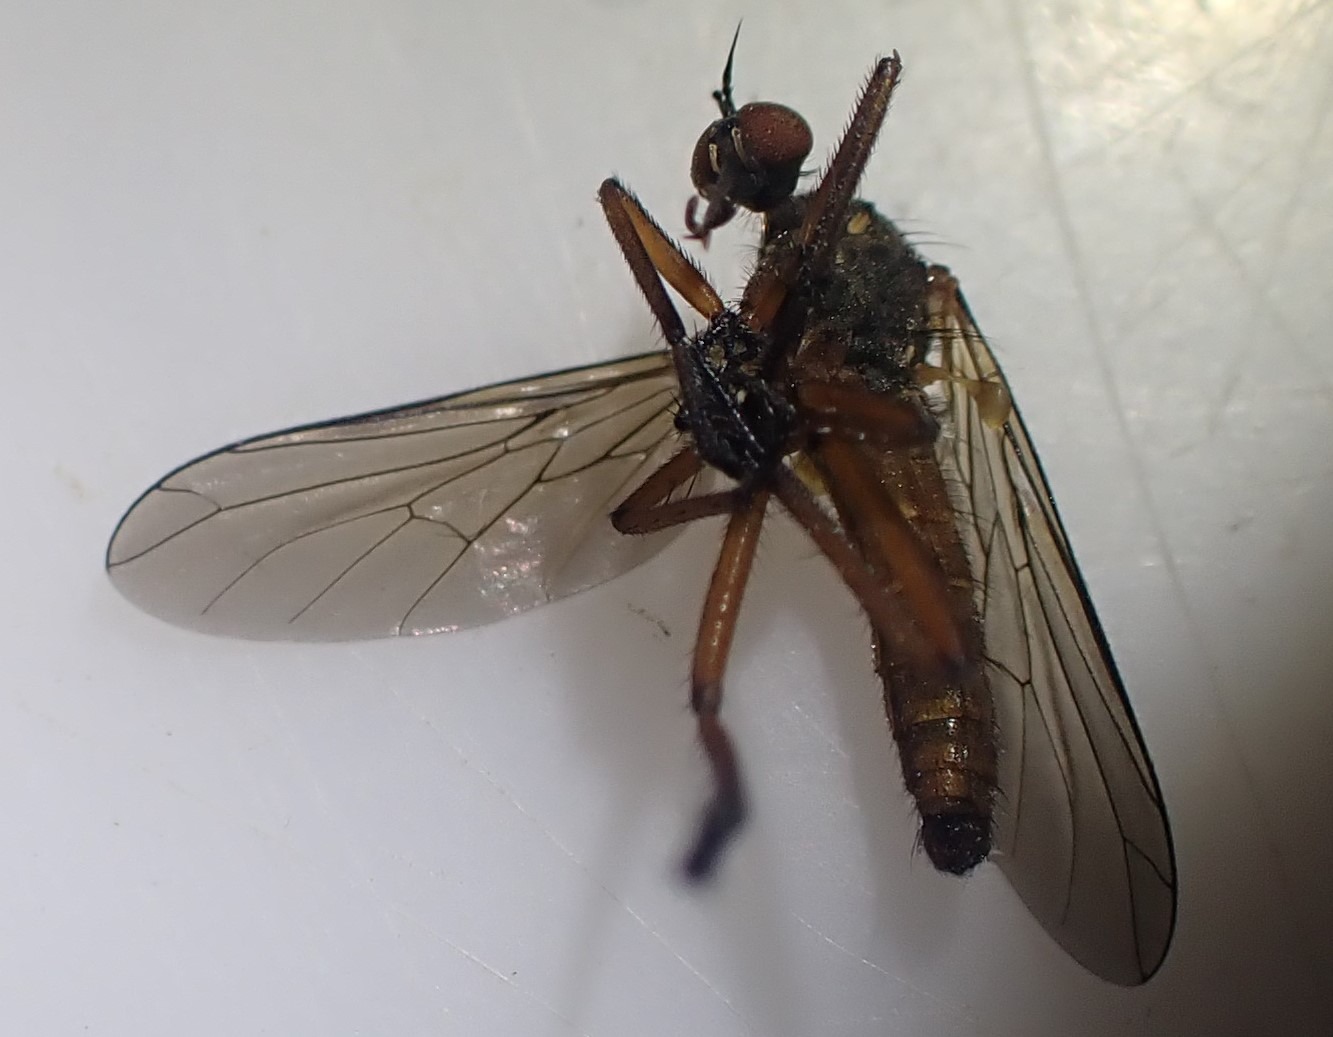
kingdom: Animalia
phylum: Arthropoda
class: Insecta
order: Diptera
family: Empididae
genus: Empis
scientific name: Empis livida
